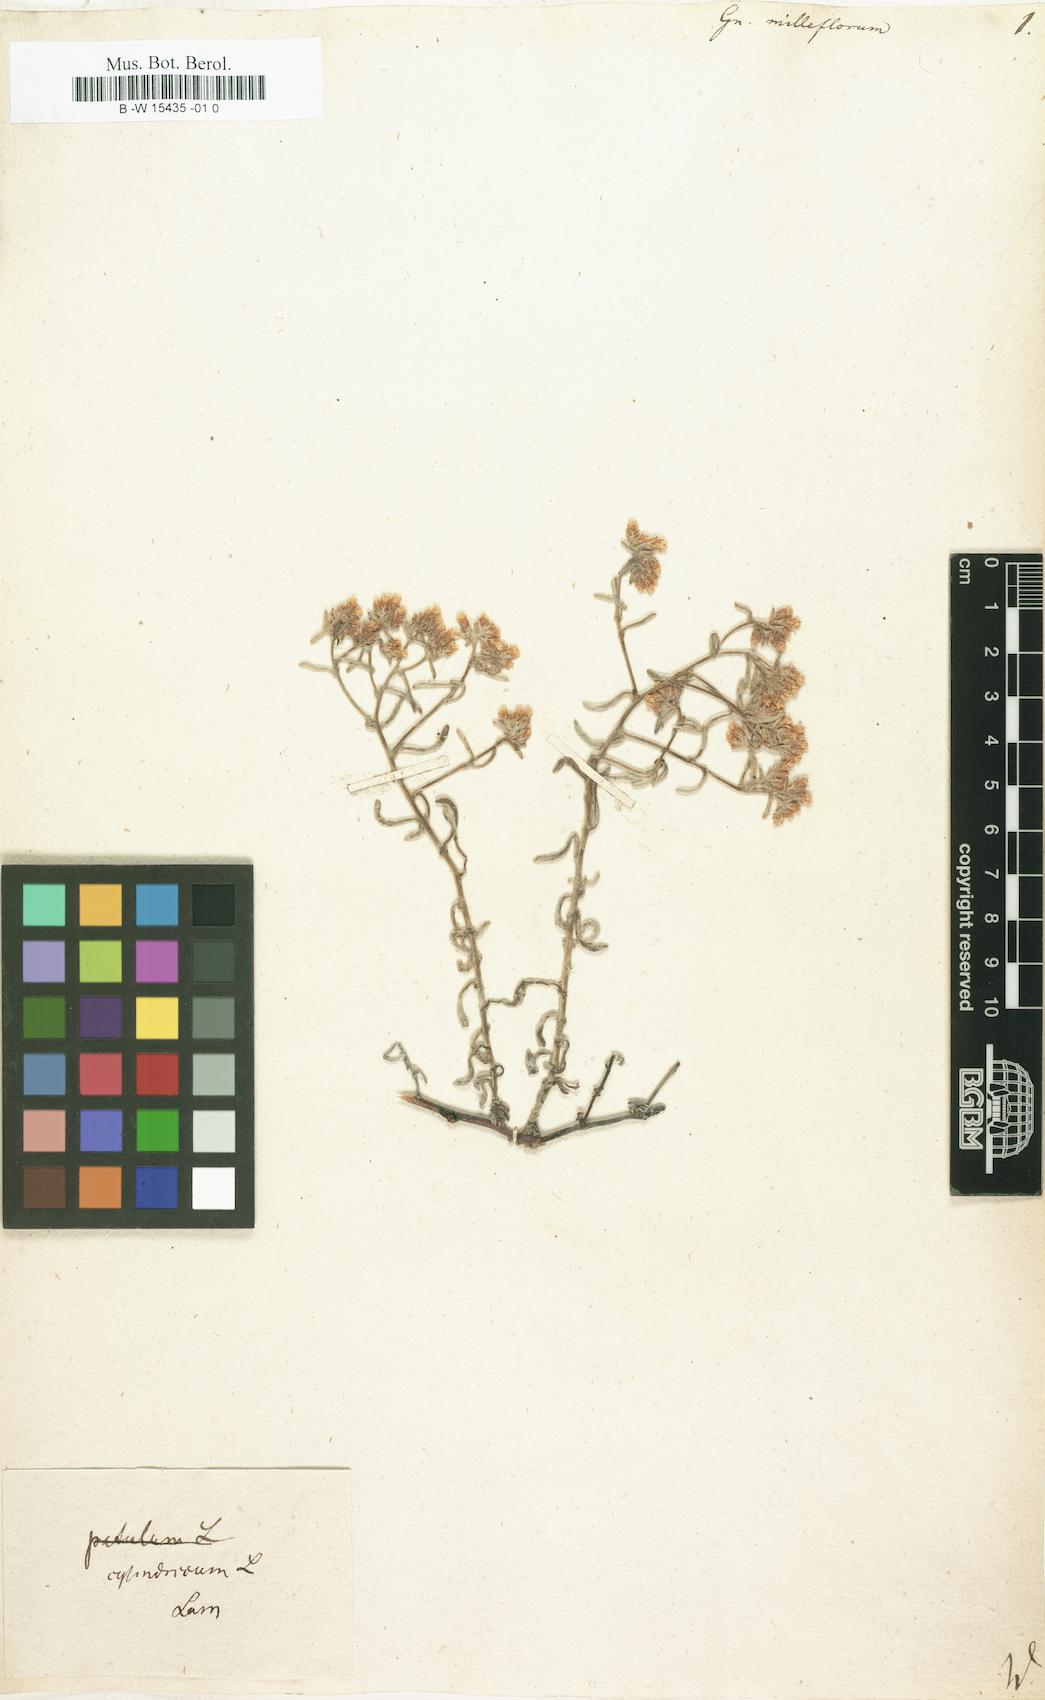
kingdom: Plantae
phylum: Tracheophyta
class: Magnoliopsida
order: Asterales
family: Asteraceae
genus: Syncarpha
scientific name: Syncarpha milleflora
